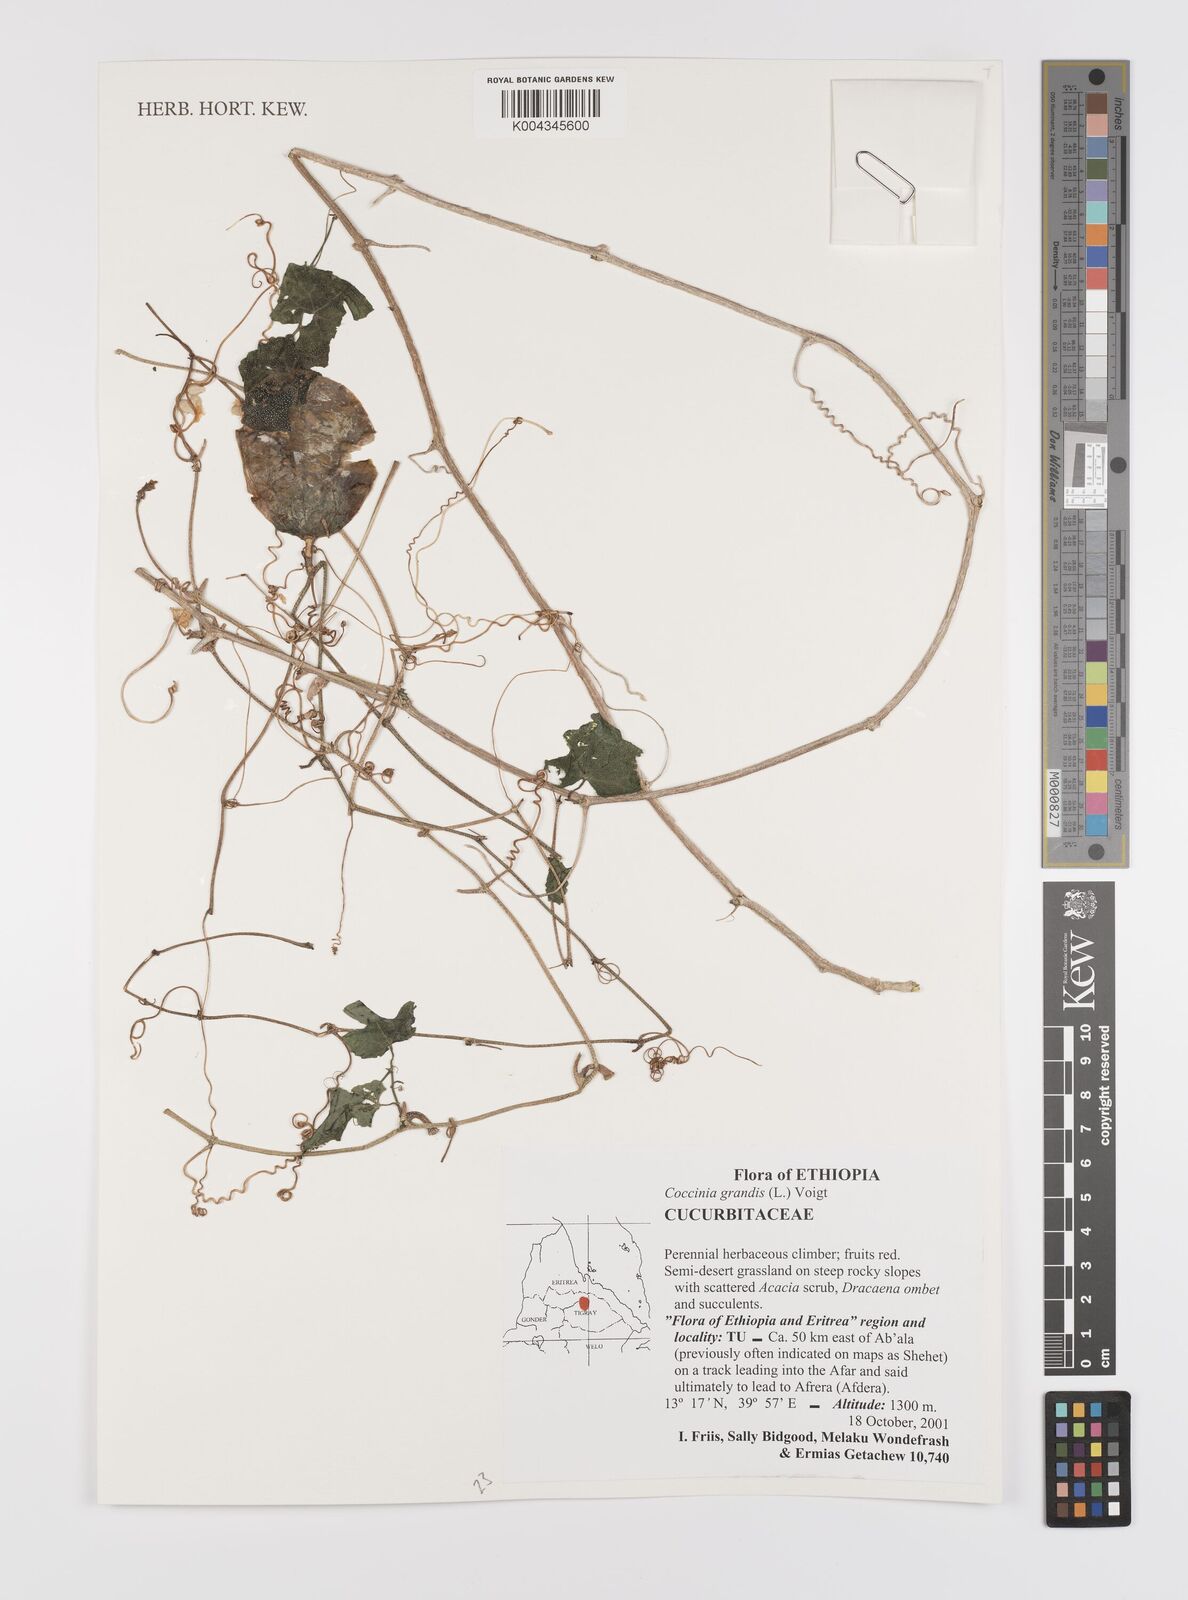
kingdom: Plantae
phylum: Tracheophyta
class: Magnoliopsida
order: Cucurbitales
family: Cucurbitaceae
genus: Coccinia
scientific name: Coccinia grandis
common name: Ivy gourd
